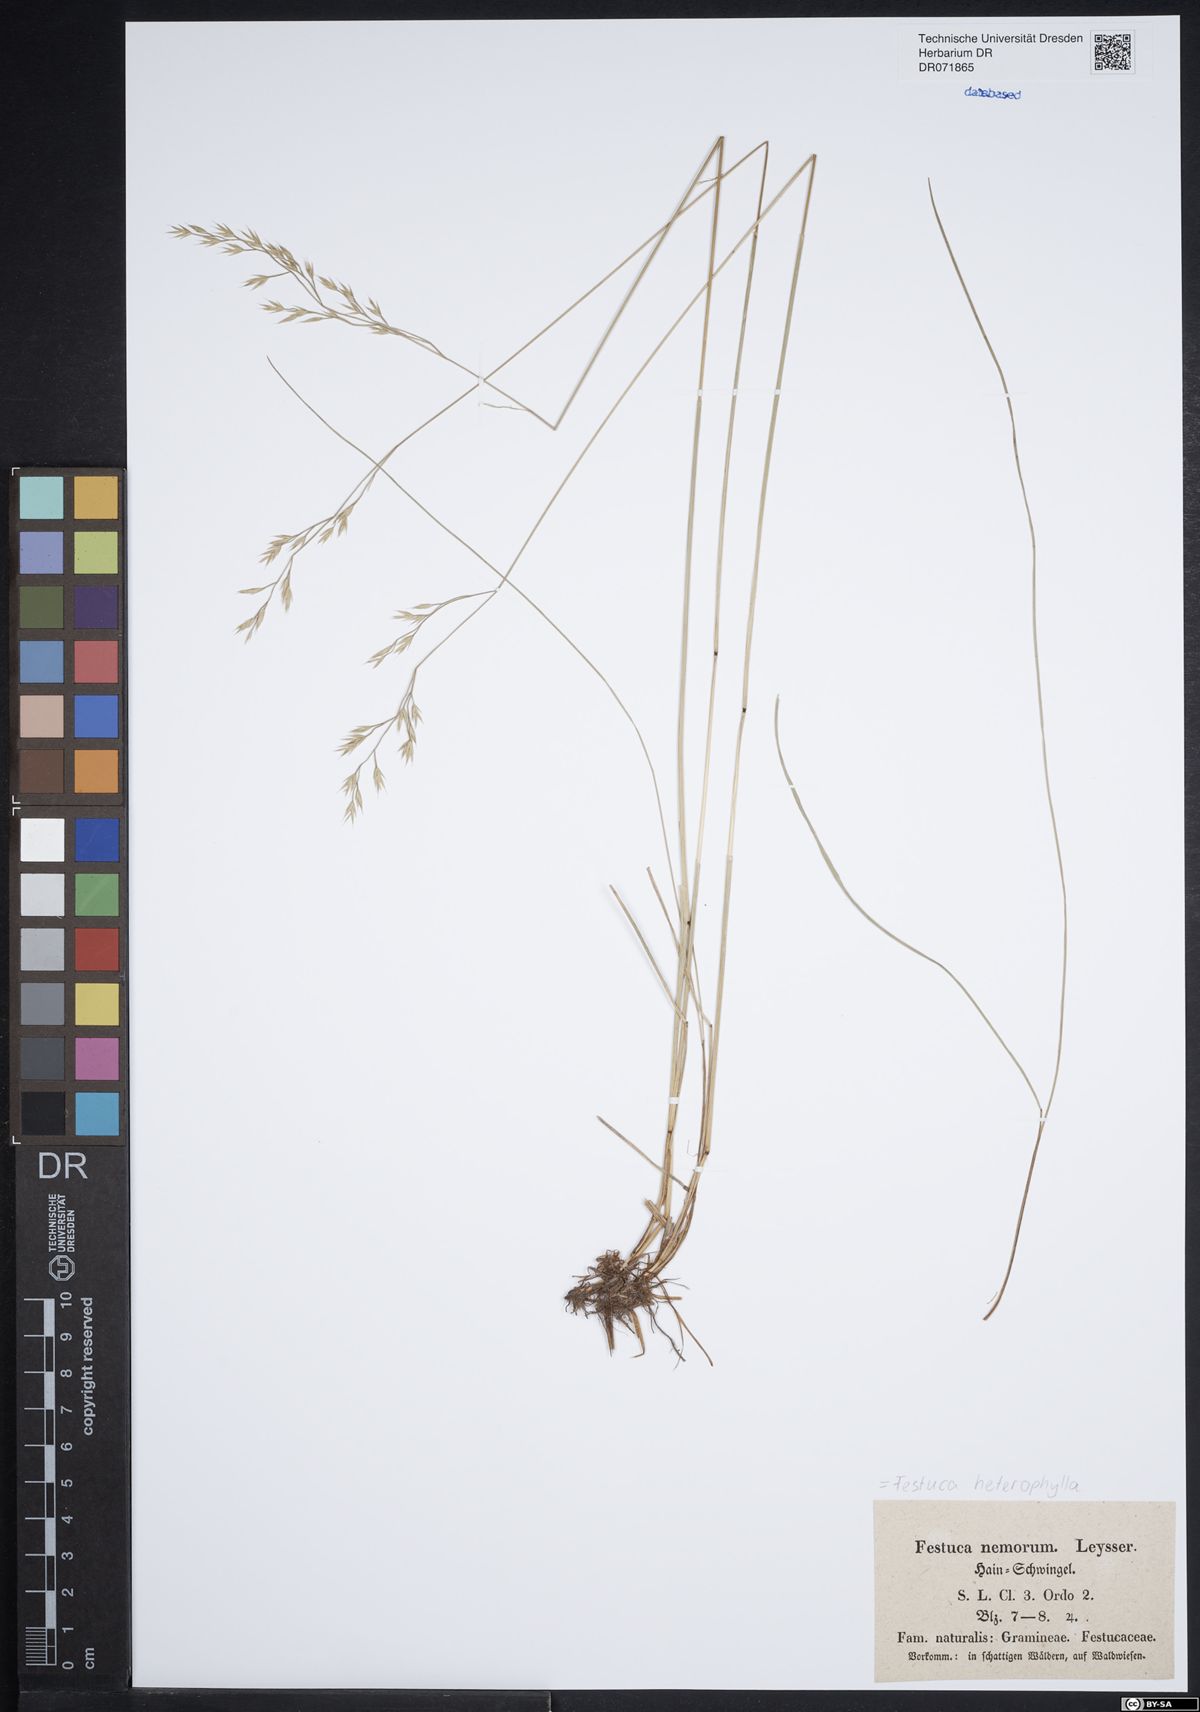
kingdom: Plantae
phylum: Tracheophyta
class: Liliopsida
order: Poales
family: Poaceae
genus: Festuca
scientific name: Festuca heterophylla
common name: Various-leaved fescue
